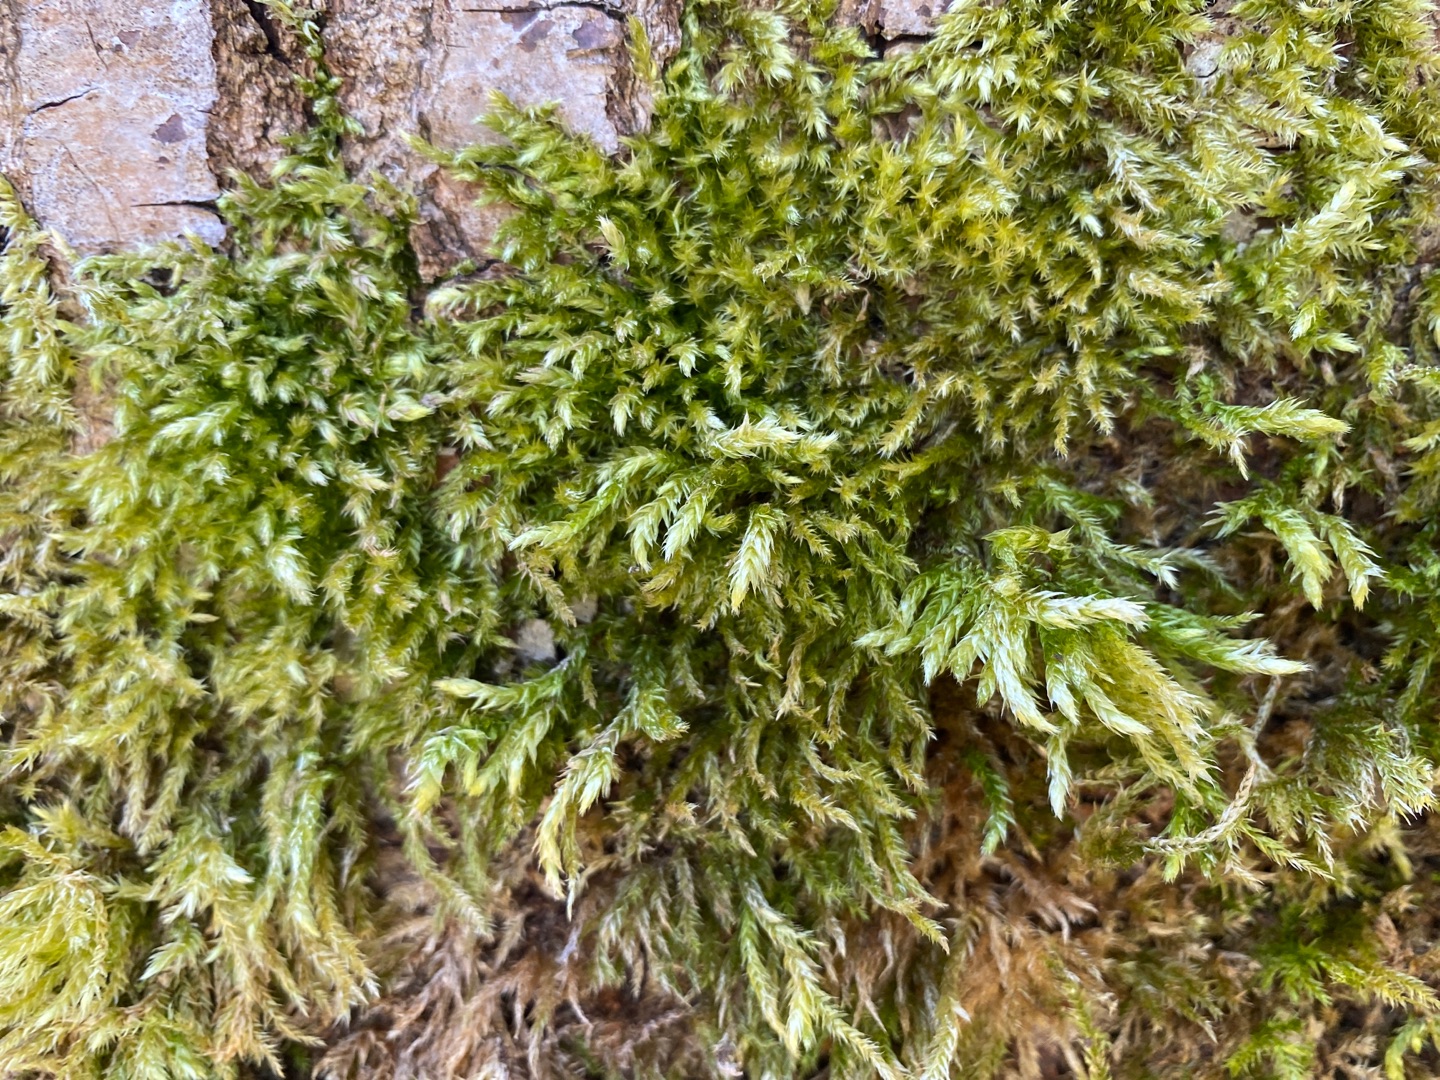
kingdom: Plantae
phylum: Bryophyta
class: Bryopsida
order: Hypnales
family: Brachytheciaceae
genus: Brachythecium
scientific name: Brachythecium rutabulum
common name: Almindelig kortkapsel
